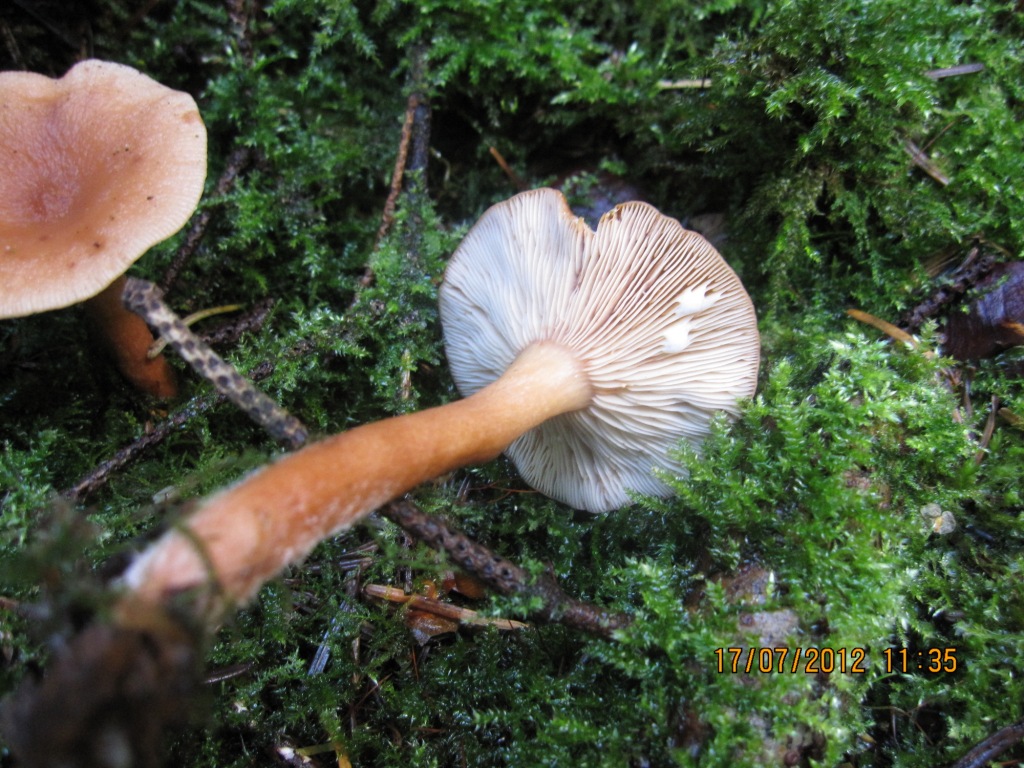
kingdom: Fungi
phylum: Basidiomycota
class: Agaricomycetes
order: Russulales
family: Russulaceae
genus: Lactarius
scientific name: Lactarius tabidus
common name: rynket mælkehat
